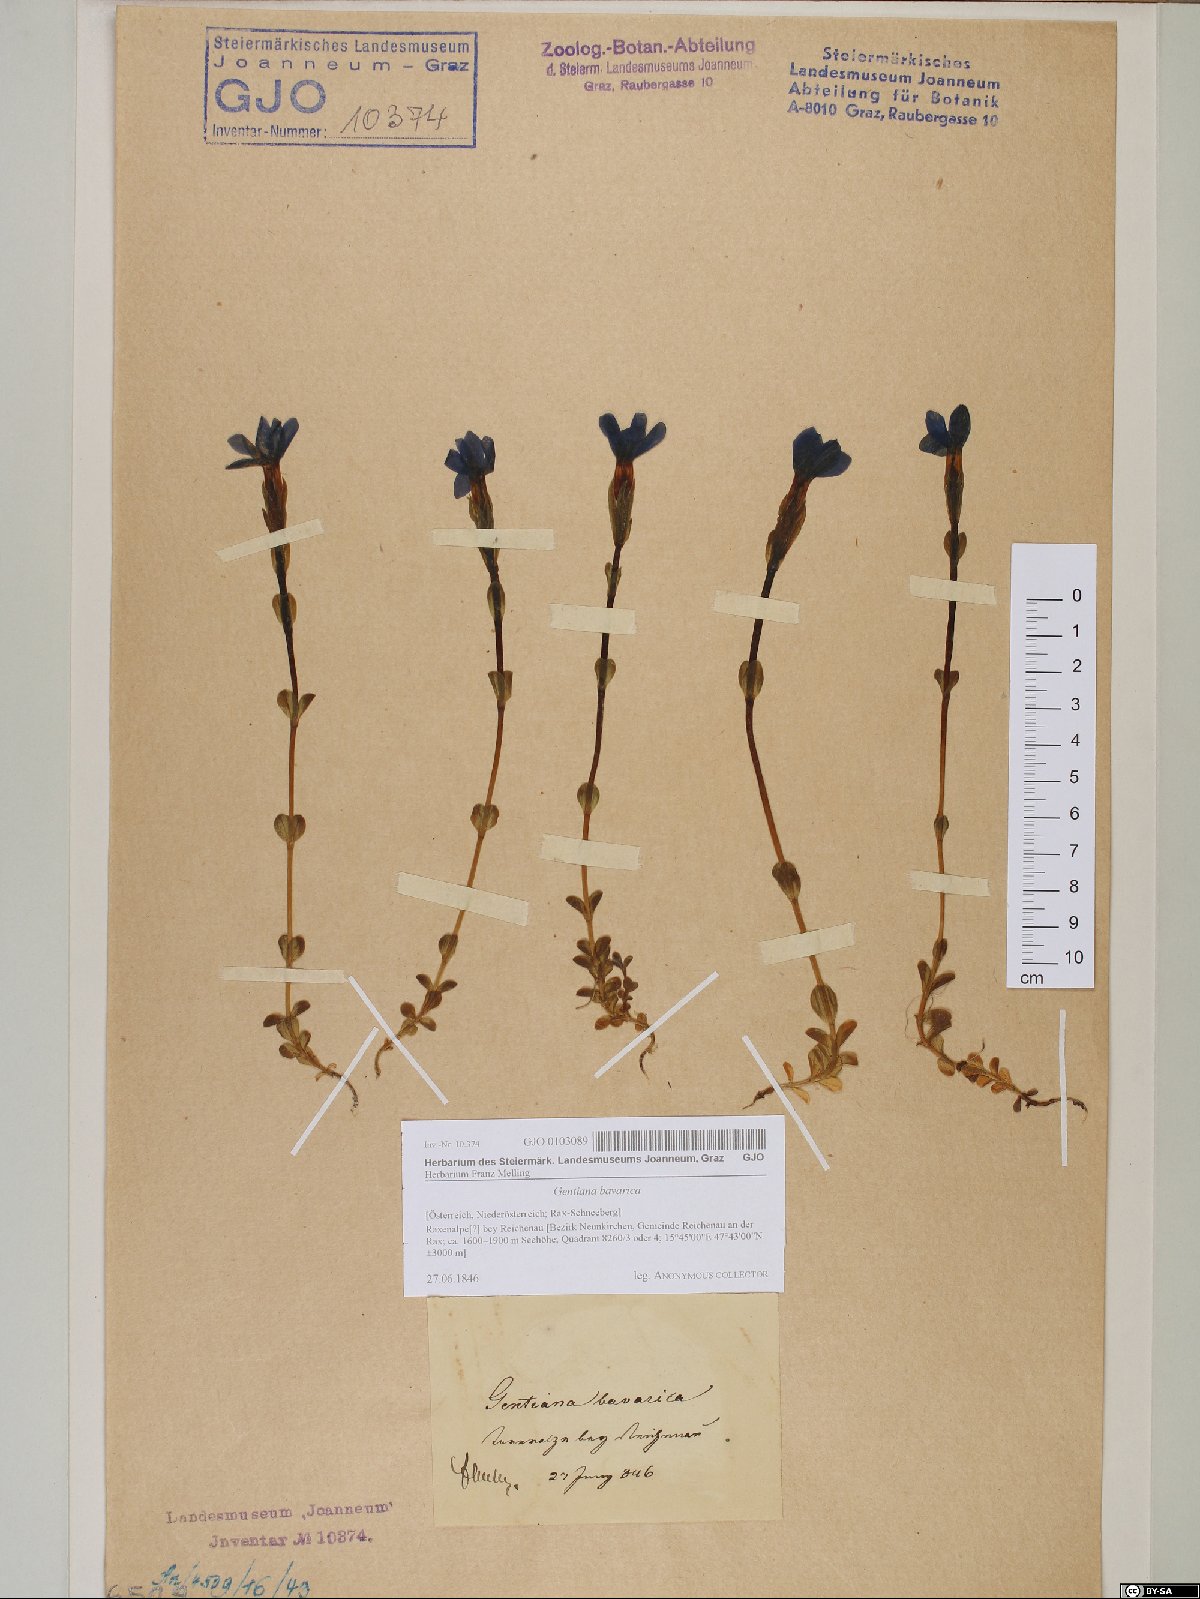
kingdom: Plantae
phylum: Tracheophyta
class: Magnoliopsida
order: Gentianales
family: Gentianaceae
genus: Gentiana
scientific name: Gentiana bavarica
